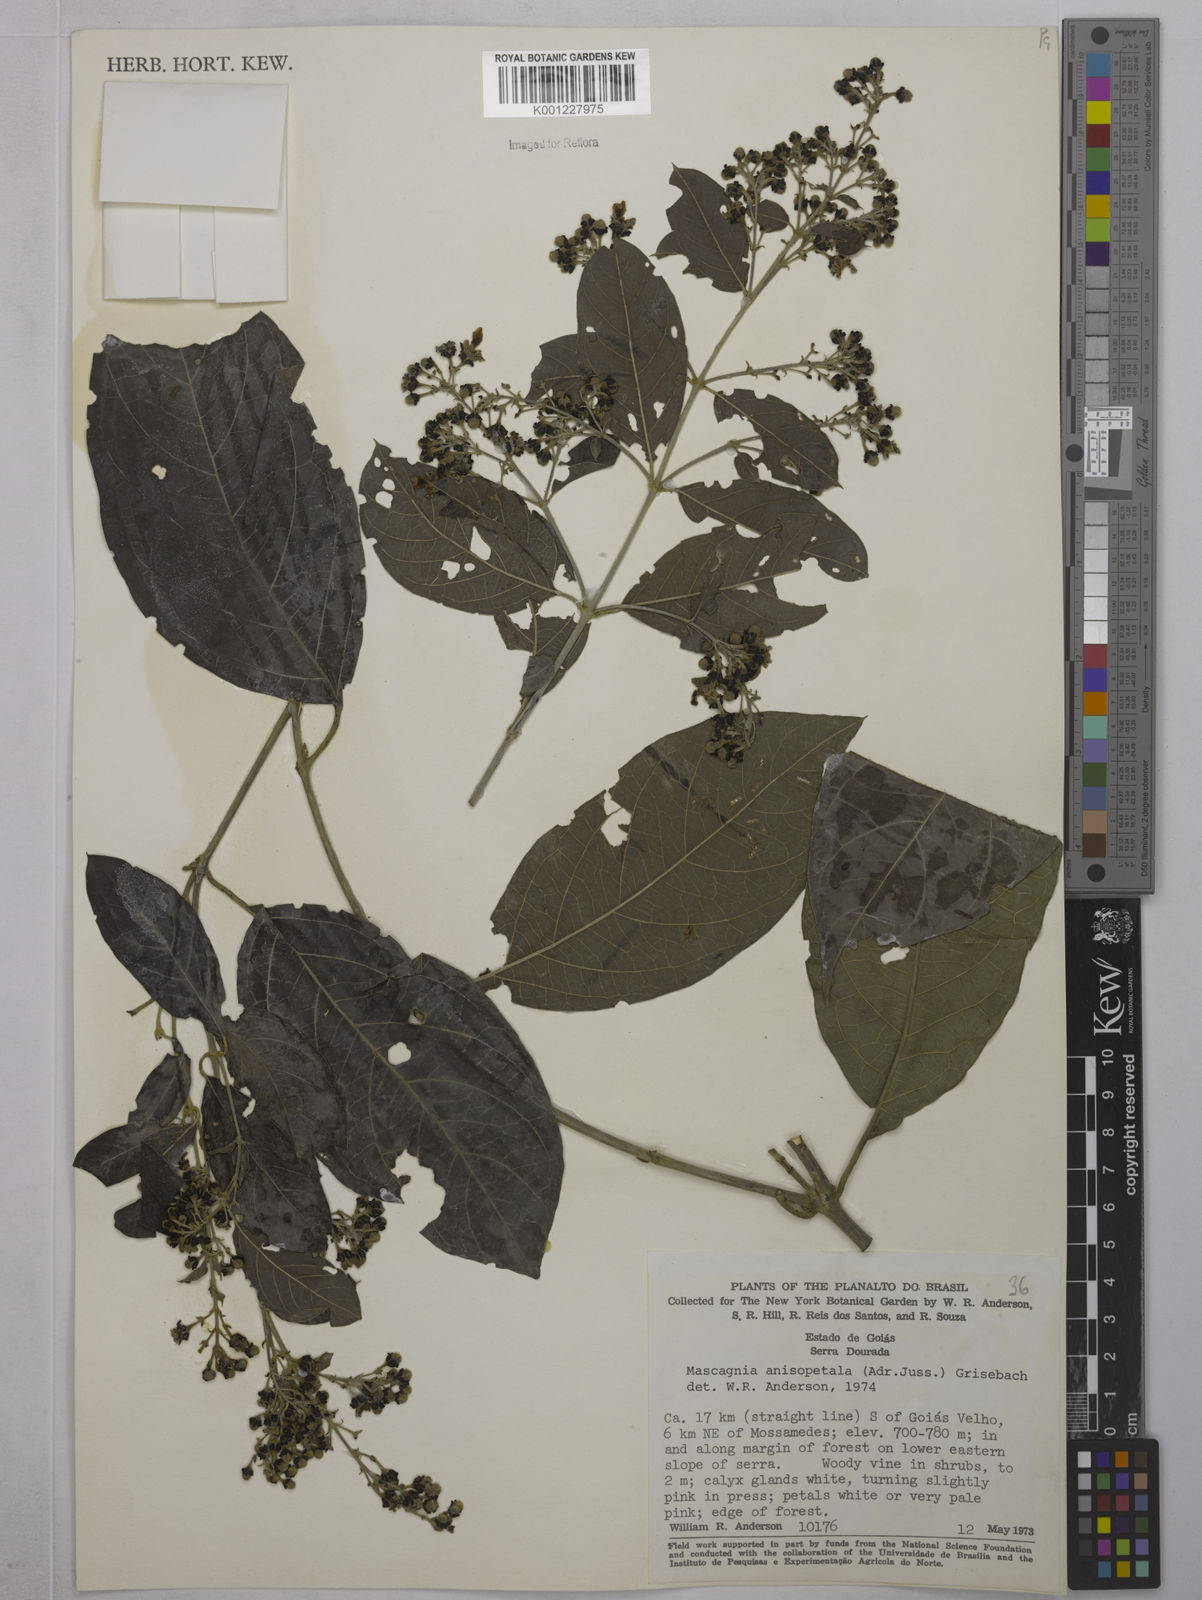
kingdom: Plantae
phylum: Tracheophyta
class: Magnoliopsida
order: Malpighiales
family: Malpighiaceae
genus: Alicia
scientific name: Alicia anisopetala
